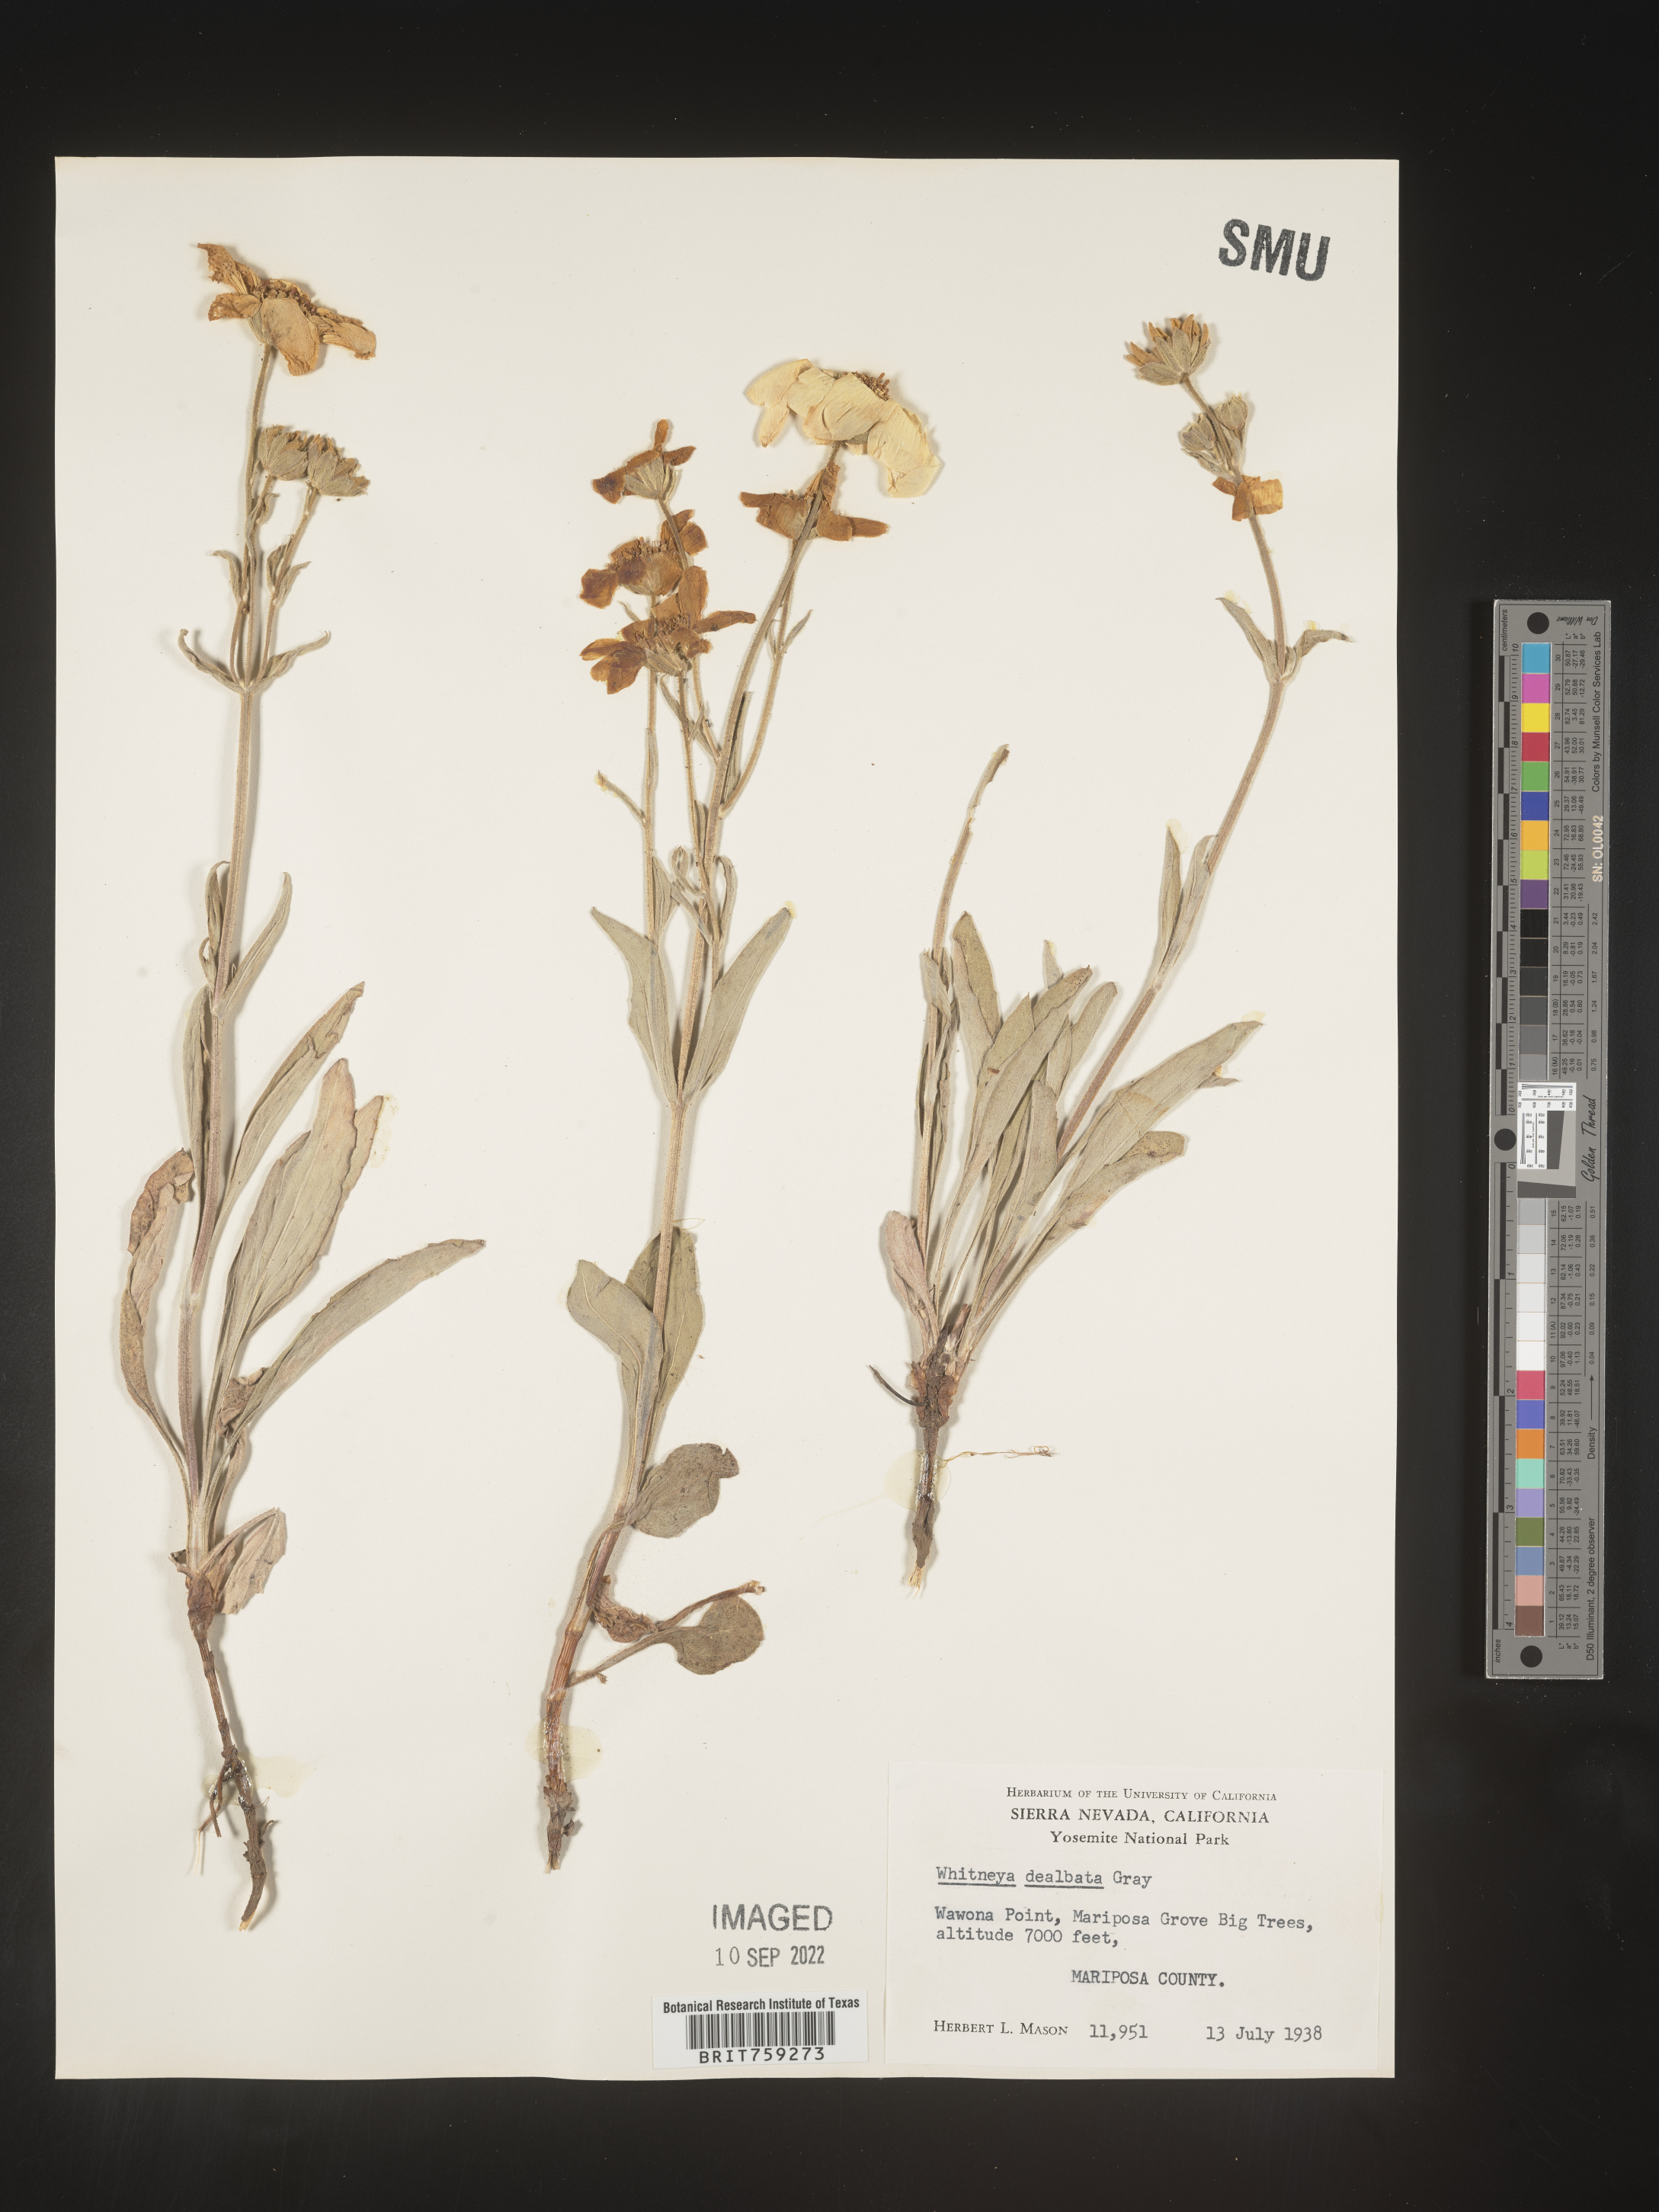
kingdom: Plantae
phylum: Tracheophyta
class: Magnoliopsida
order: Asterales
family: Asteraceae
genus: Arnica
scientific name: Arnica dealbata
